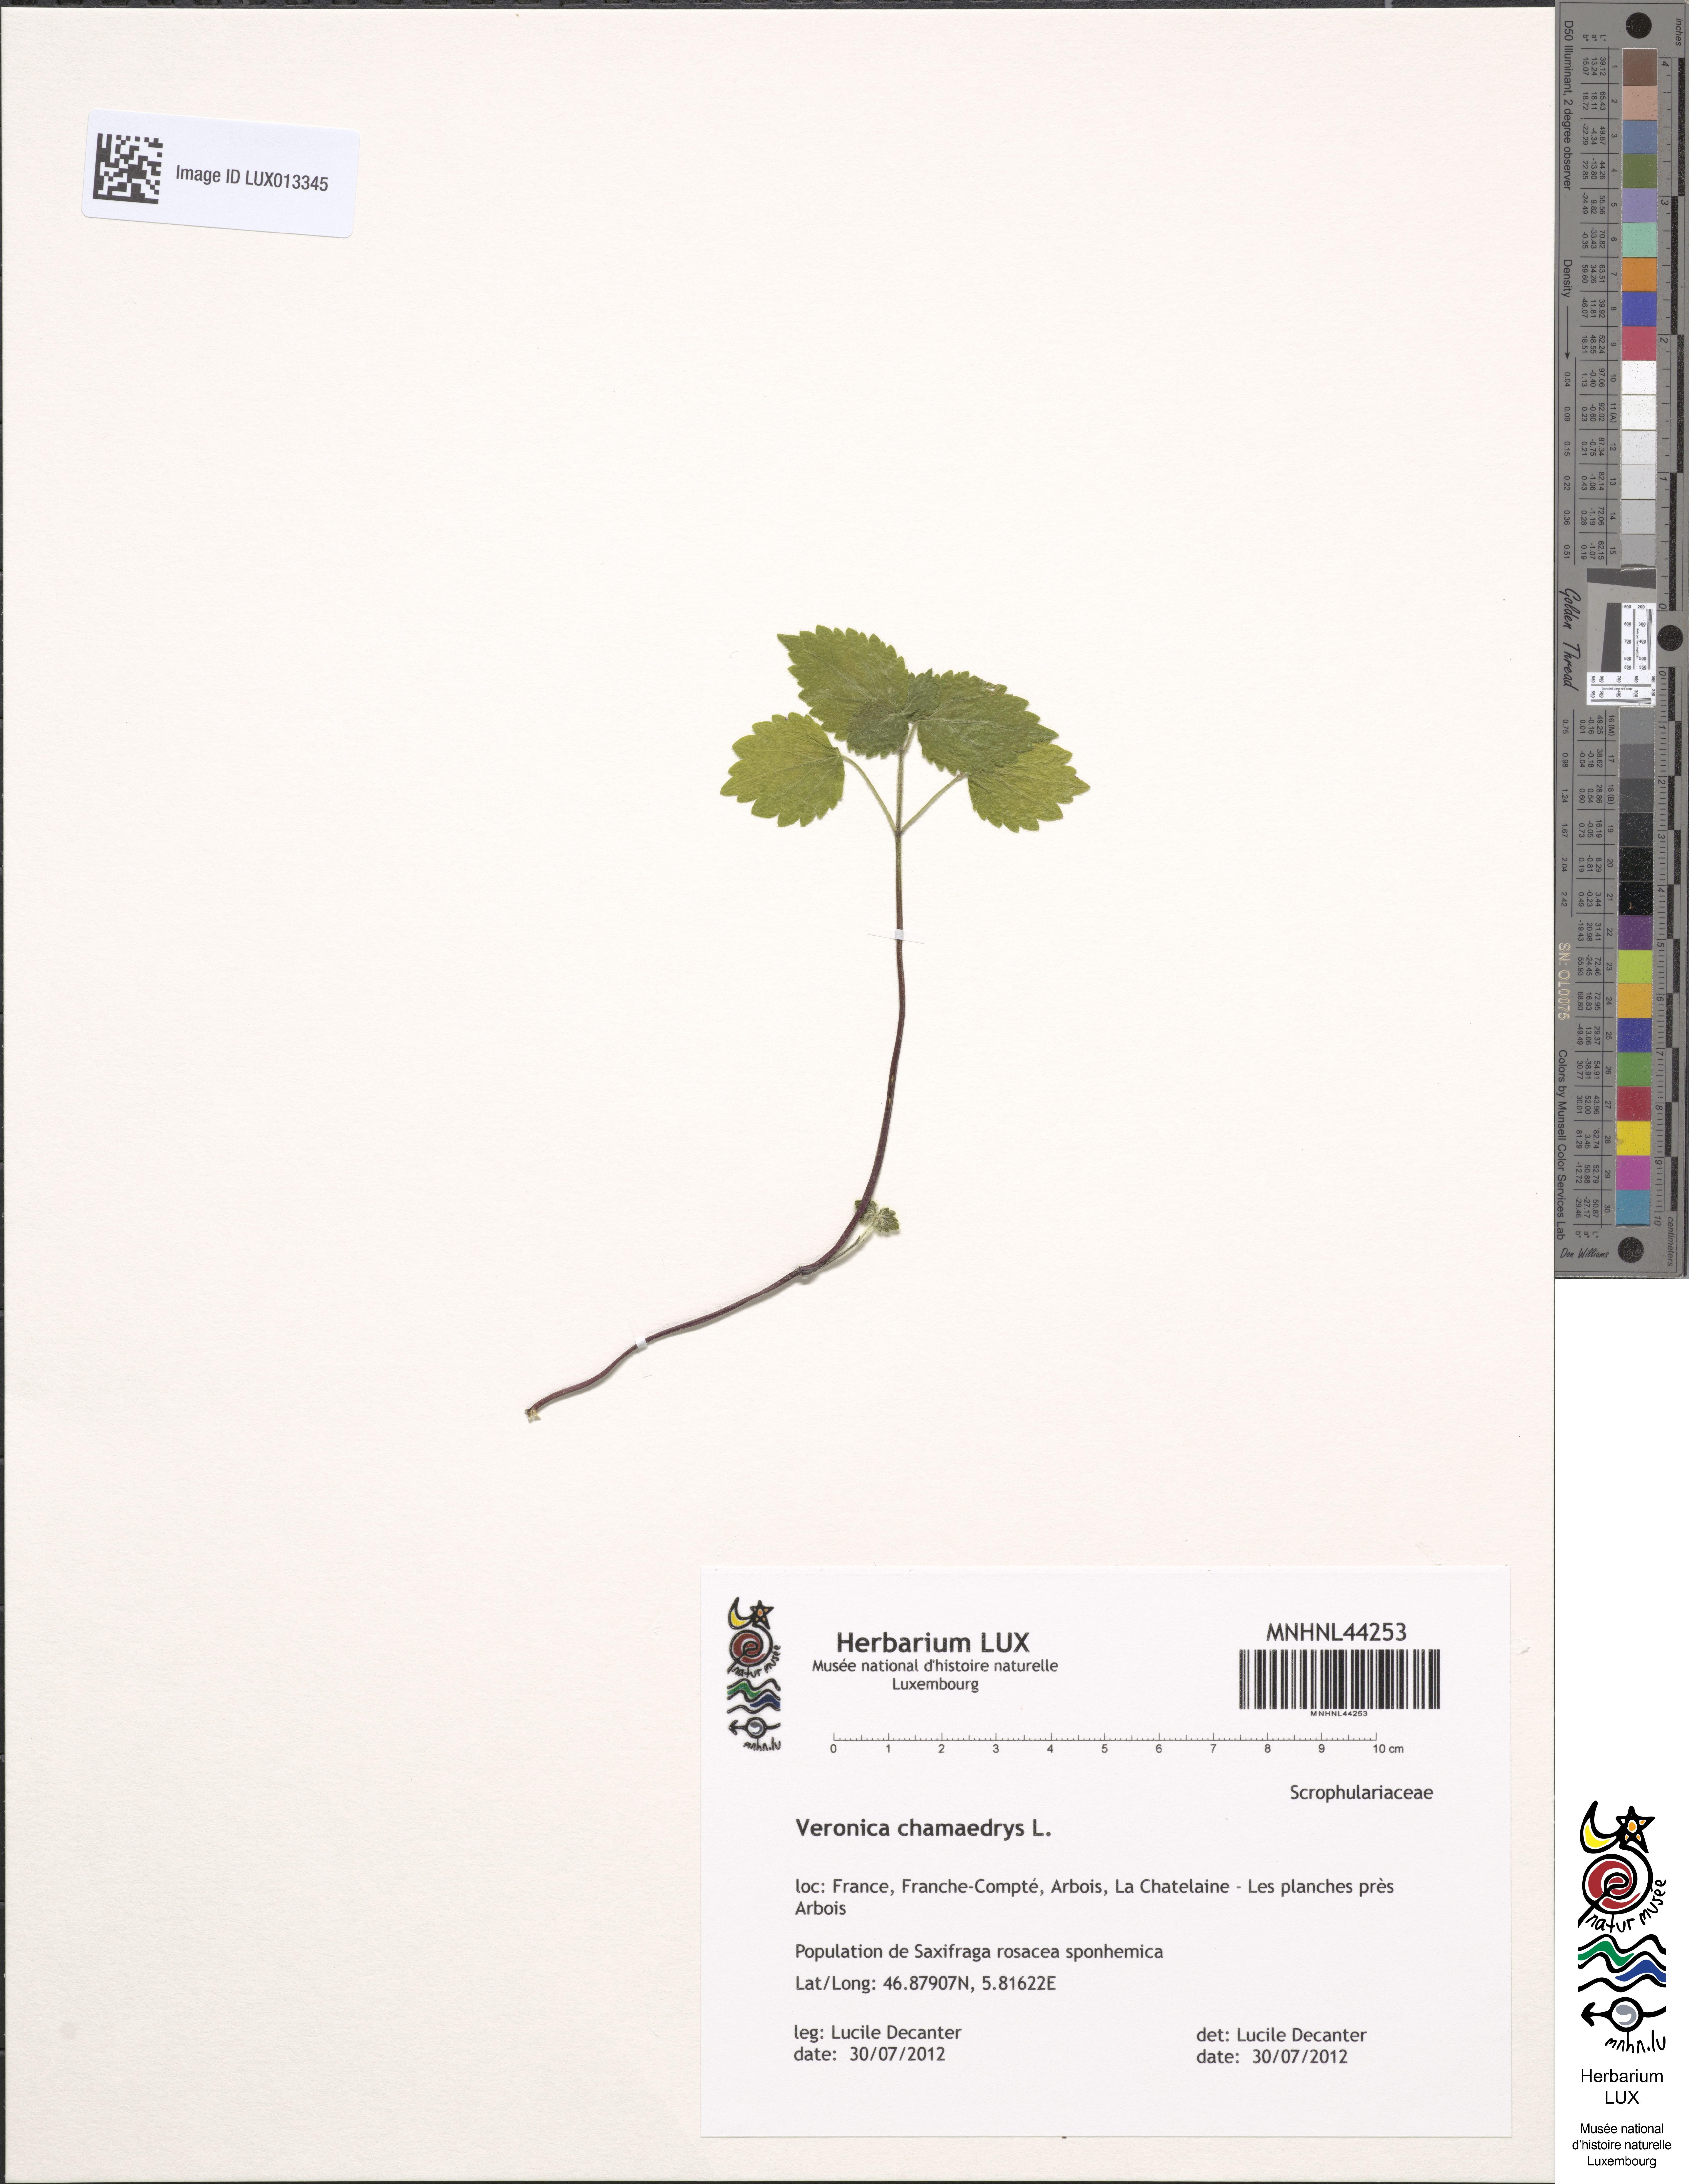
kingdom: Plantae
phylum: Tracheophyta
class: Magnoliopsida
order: Lamiales
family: Plantaginaceae
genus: Veronica
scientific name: Veronica chamaedrys
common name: Germander speedwell
